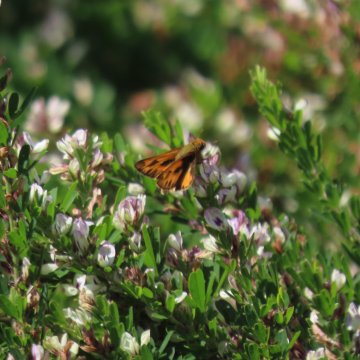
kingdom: Animalia
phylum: Arthropoda
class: Insecta
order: Lepidoptera
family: Hesperiidae
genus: Hylephila
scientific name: Hylephila phyleus
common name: Fiery Skipper
